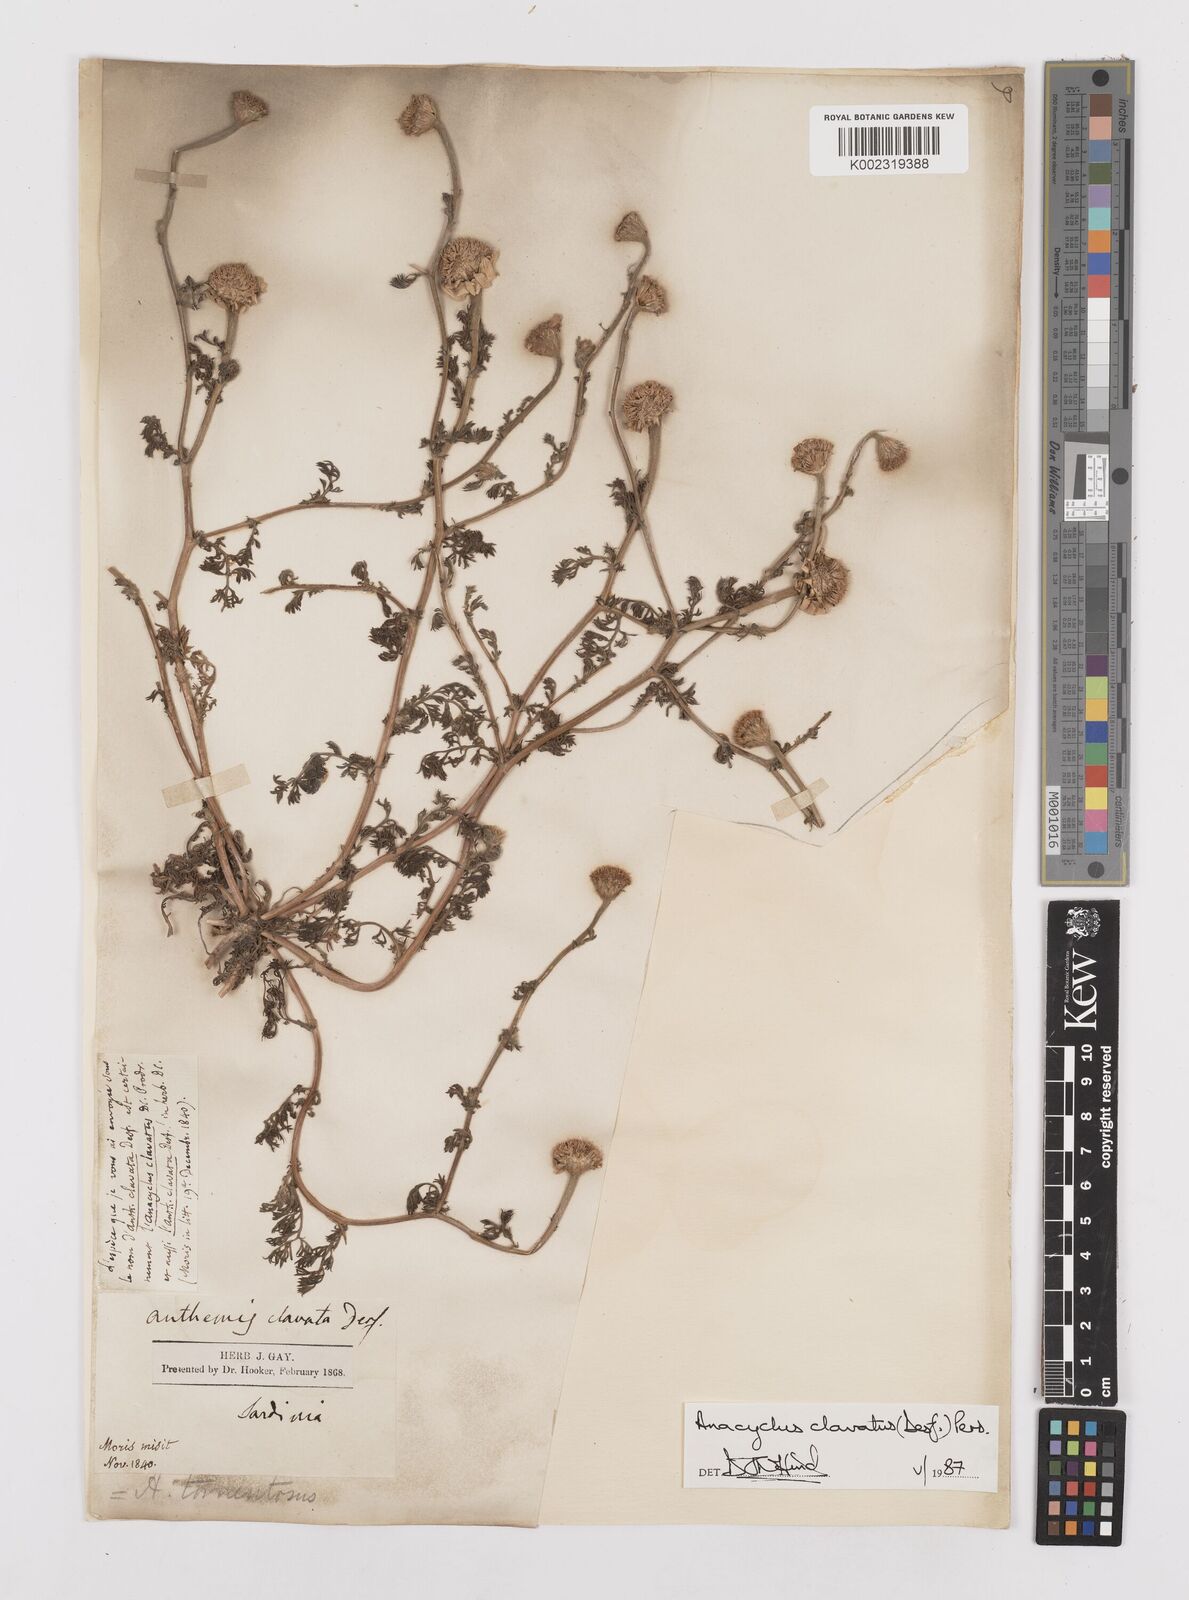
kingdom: Plantae
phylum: Tracheophyta
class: Magnoliopsida
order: Asterales
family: Asteraceae
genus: Anacyclus
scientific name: Anacyclus clavatus
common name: Whitebuttons
